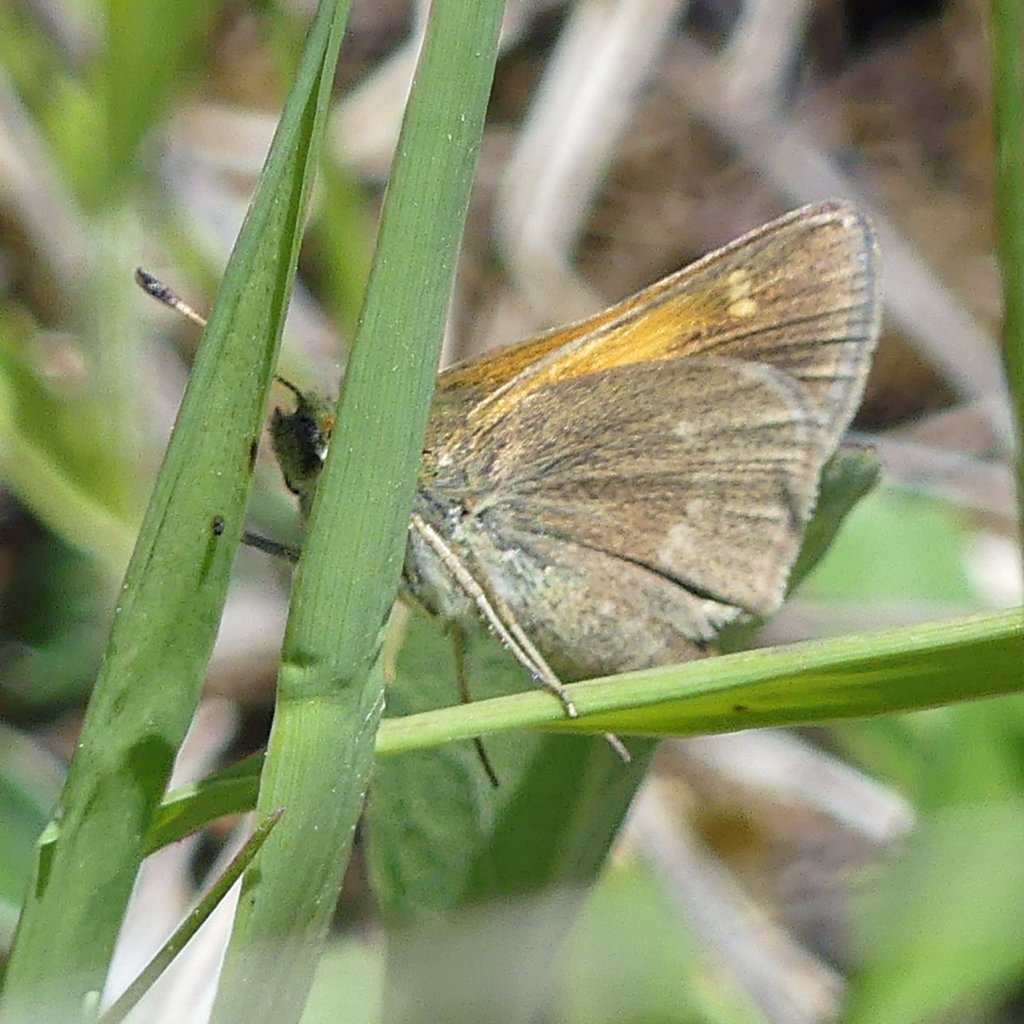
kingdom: Animalia
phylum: Arthropoda
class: Insecta
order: Lepidoptera
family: Hesperiidae
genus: Polites
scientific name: Polites themistocles
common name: Tawny-edged Skipper
